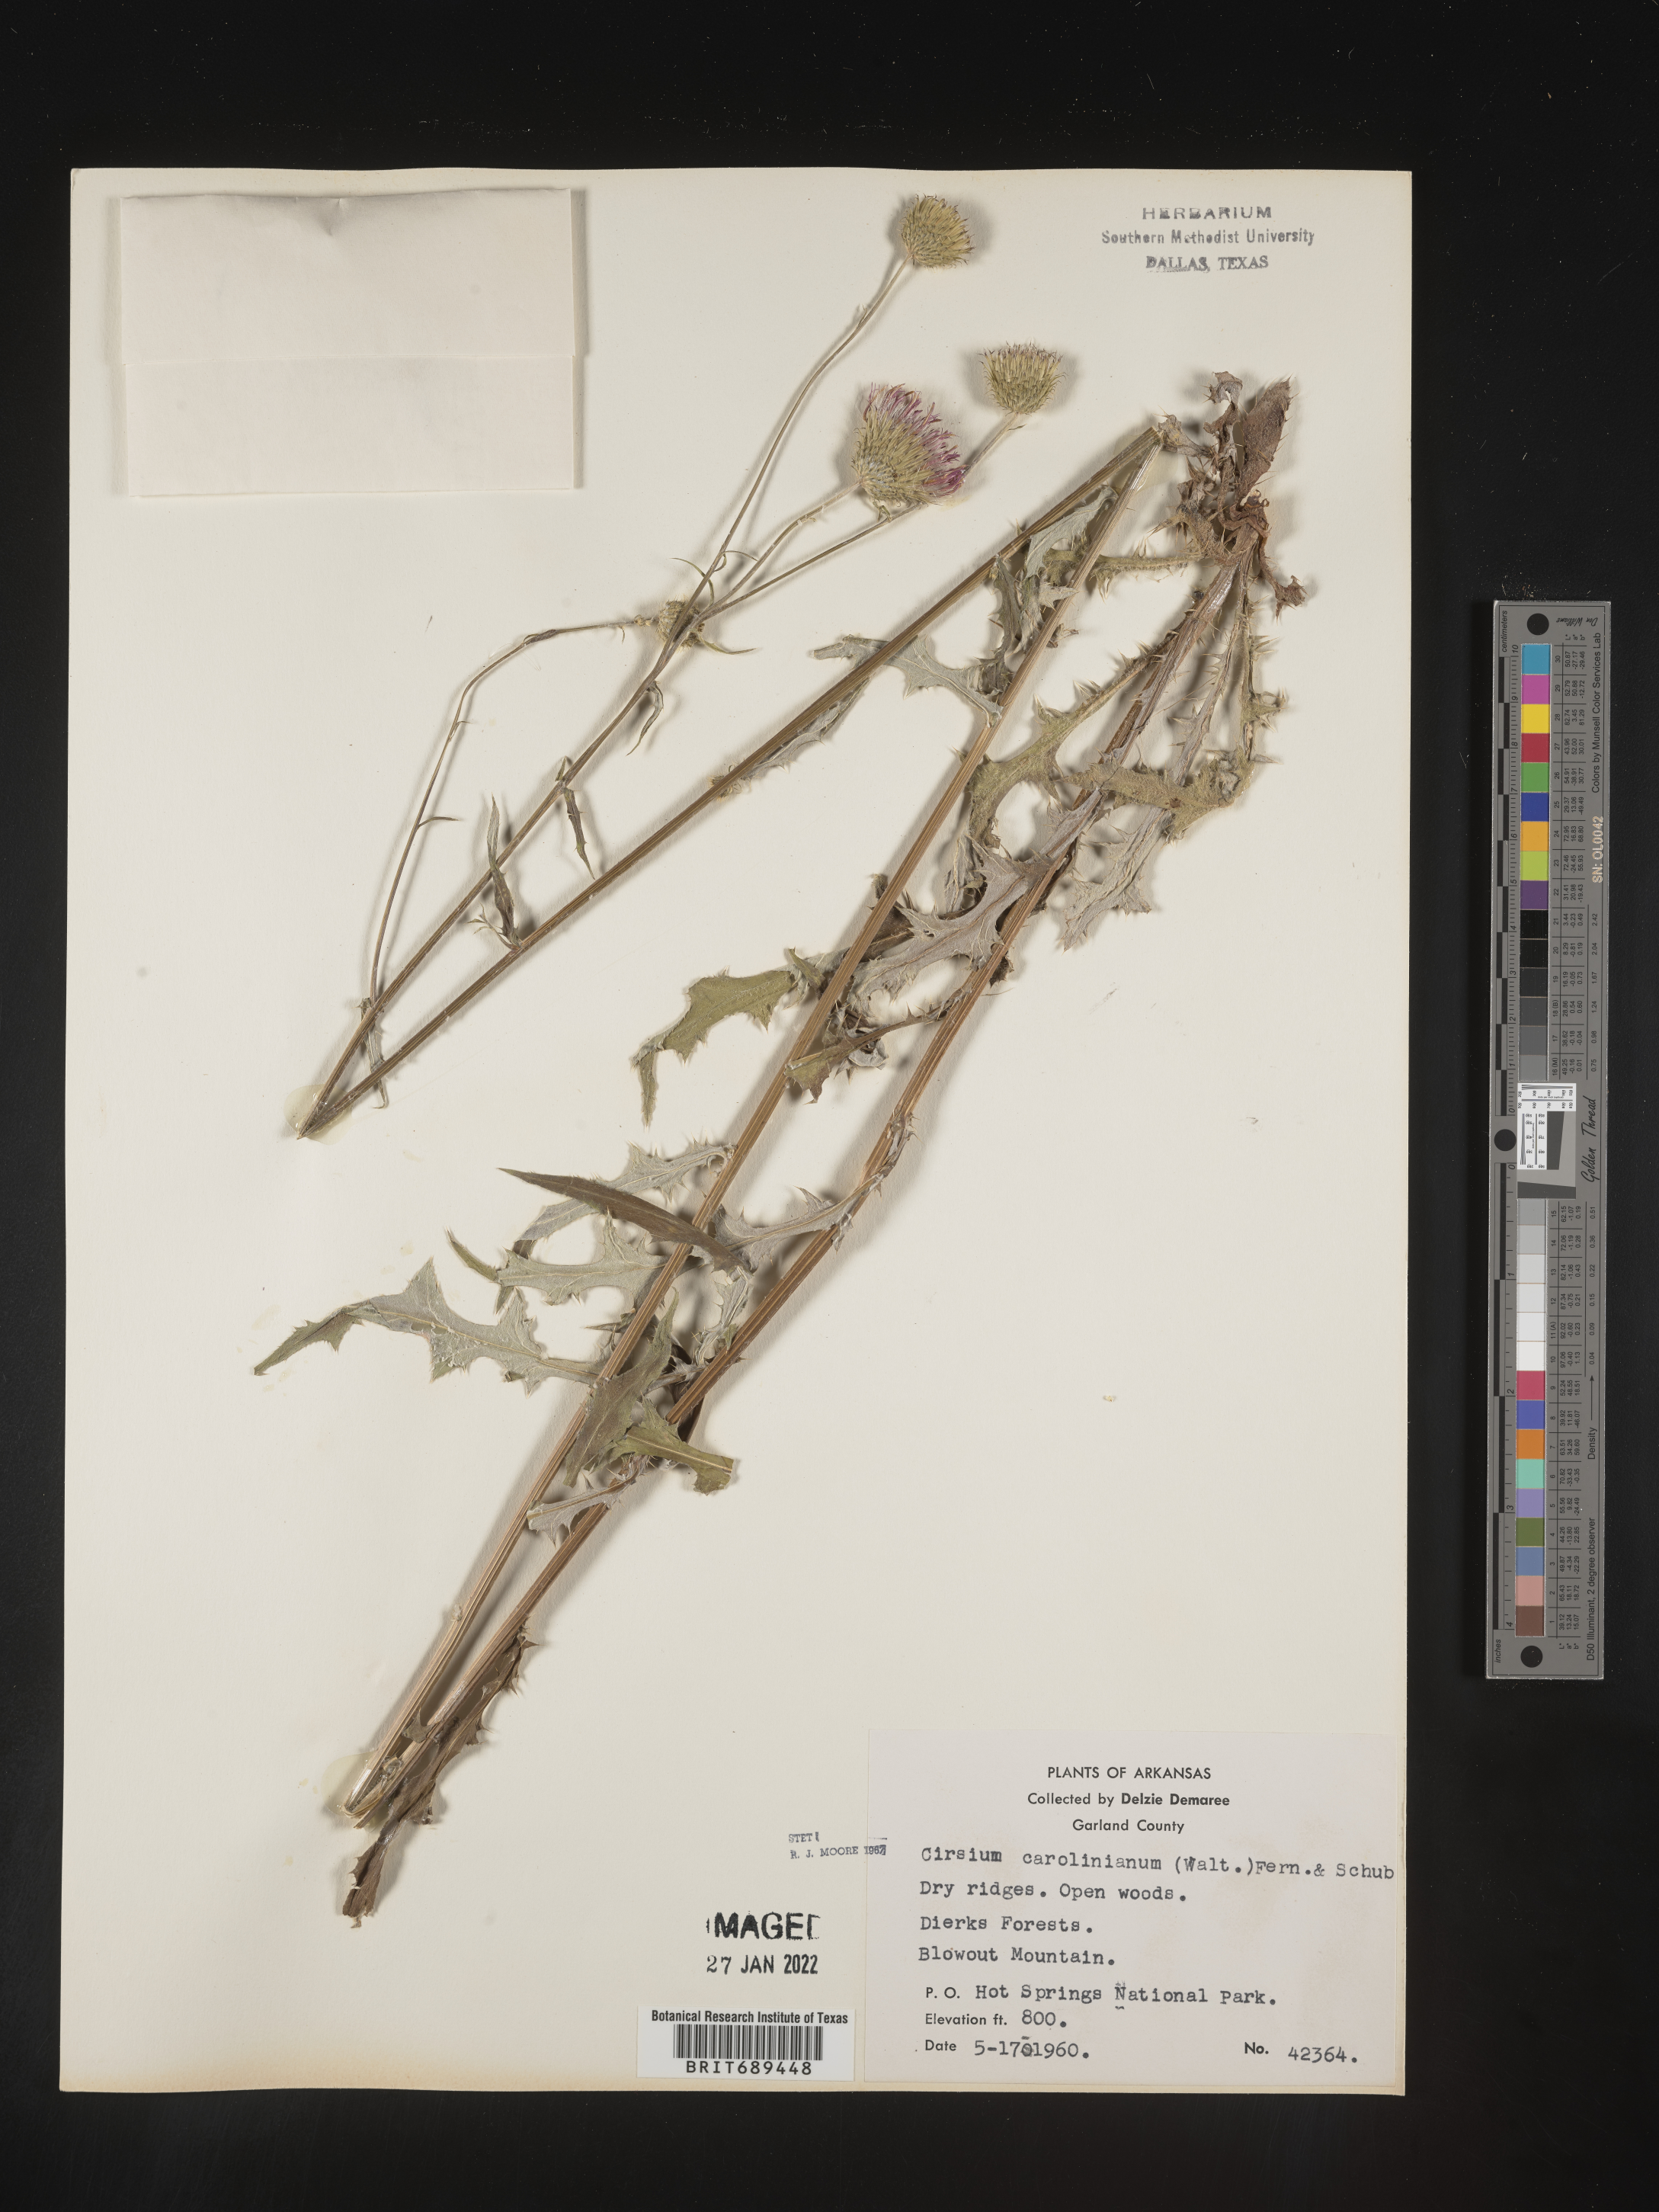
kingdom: Plantae
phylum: Tracheophyta
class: Magnoliopsida
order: Asterales
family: Asteraceae
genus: Cirsium
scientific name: Cirsium carolinianum
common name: Carolina thistle
